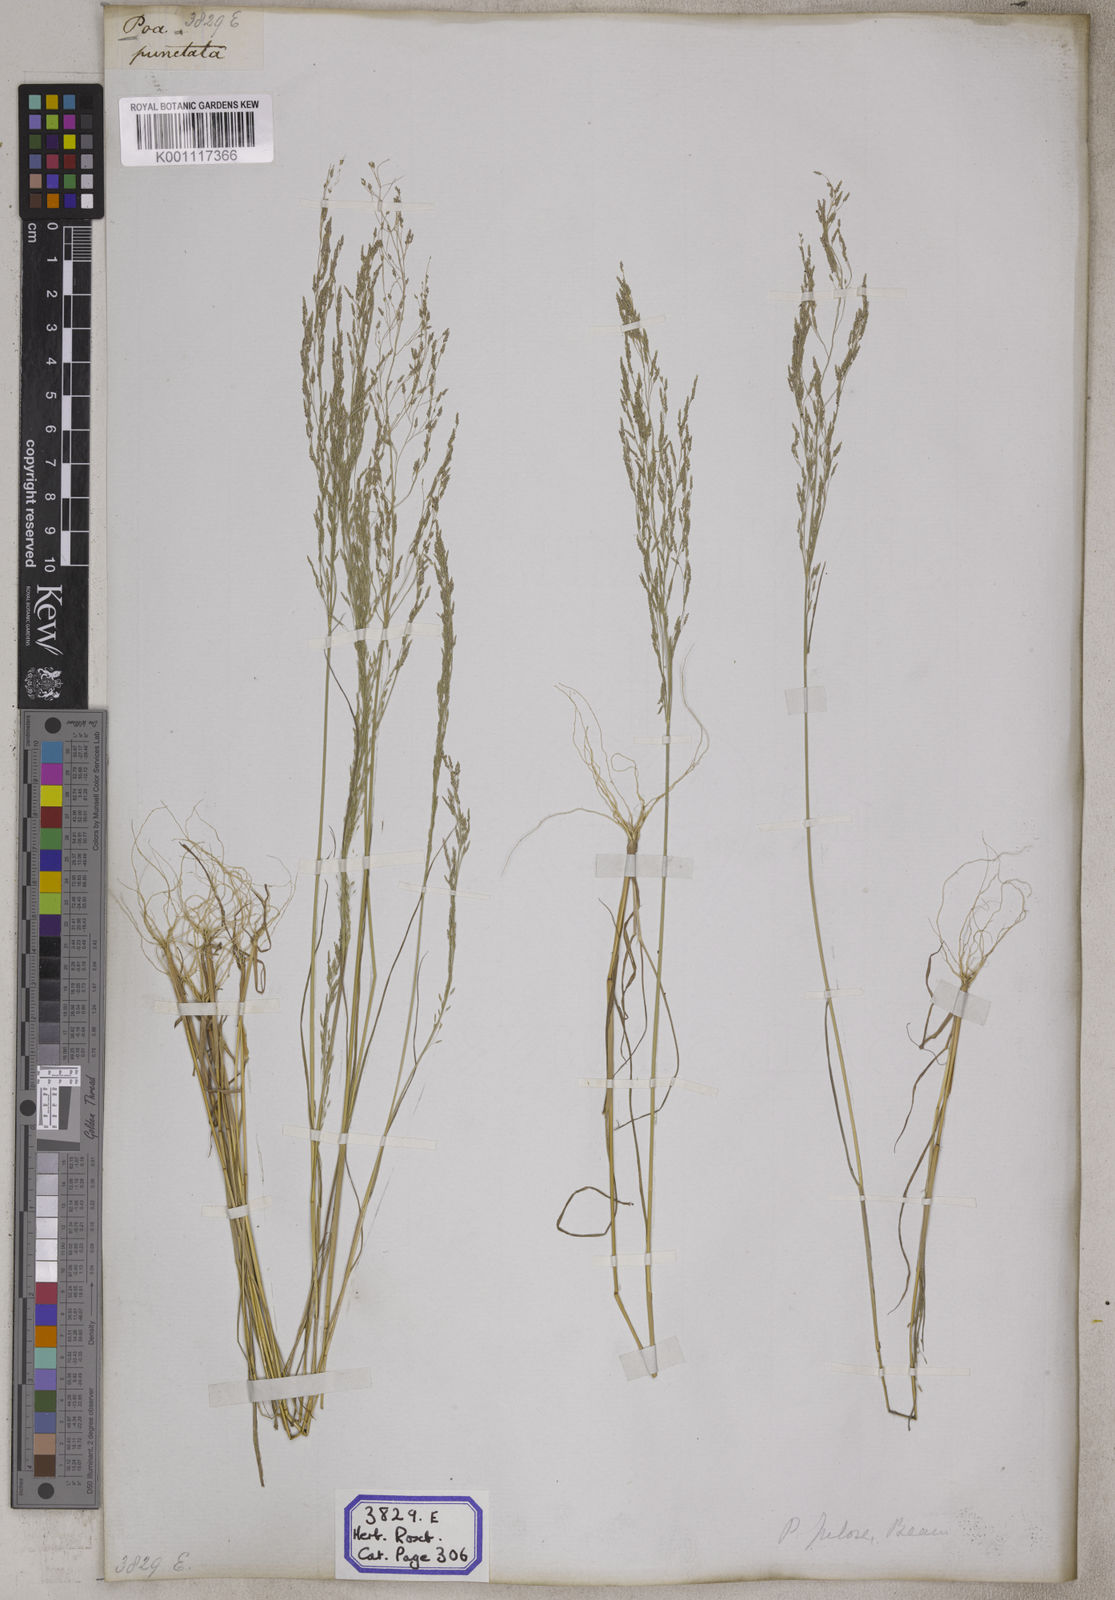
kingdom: Plantae
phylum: Tracheophyta
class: Liliopsida
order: Poales
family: Poaceae
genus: Eragrostis
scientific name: Eragrostis
